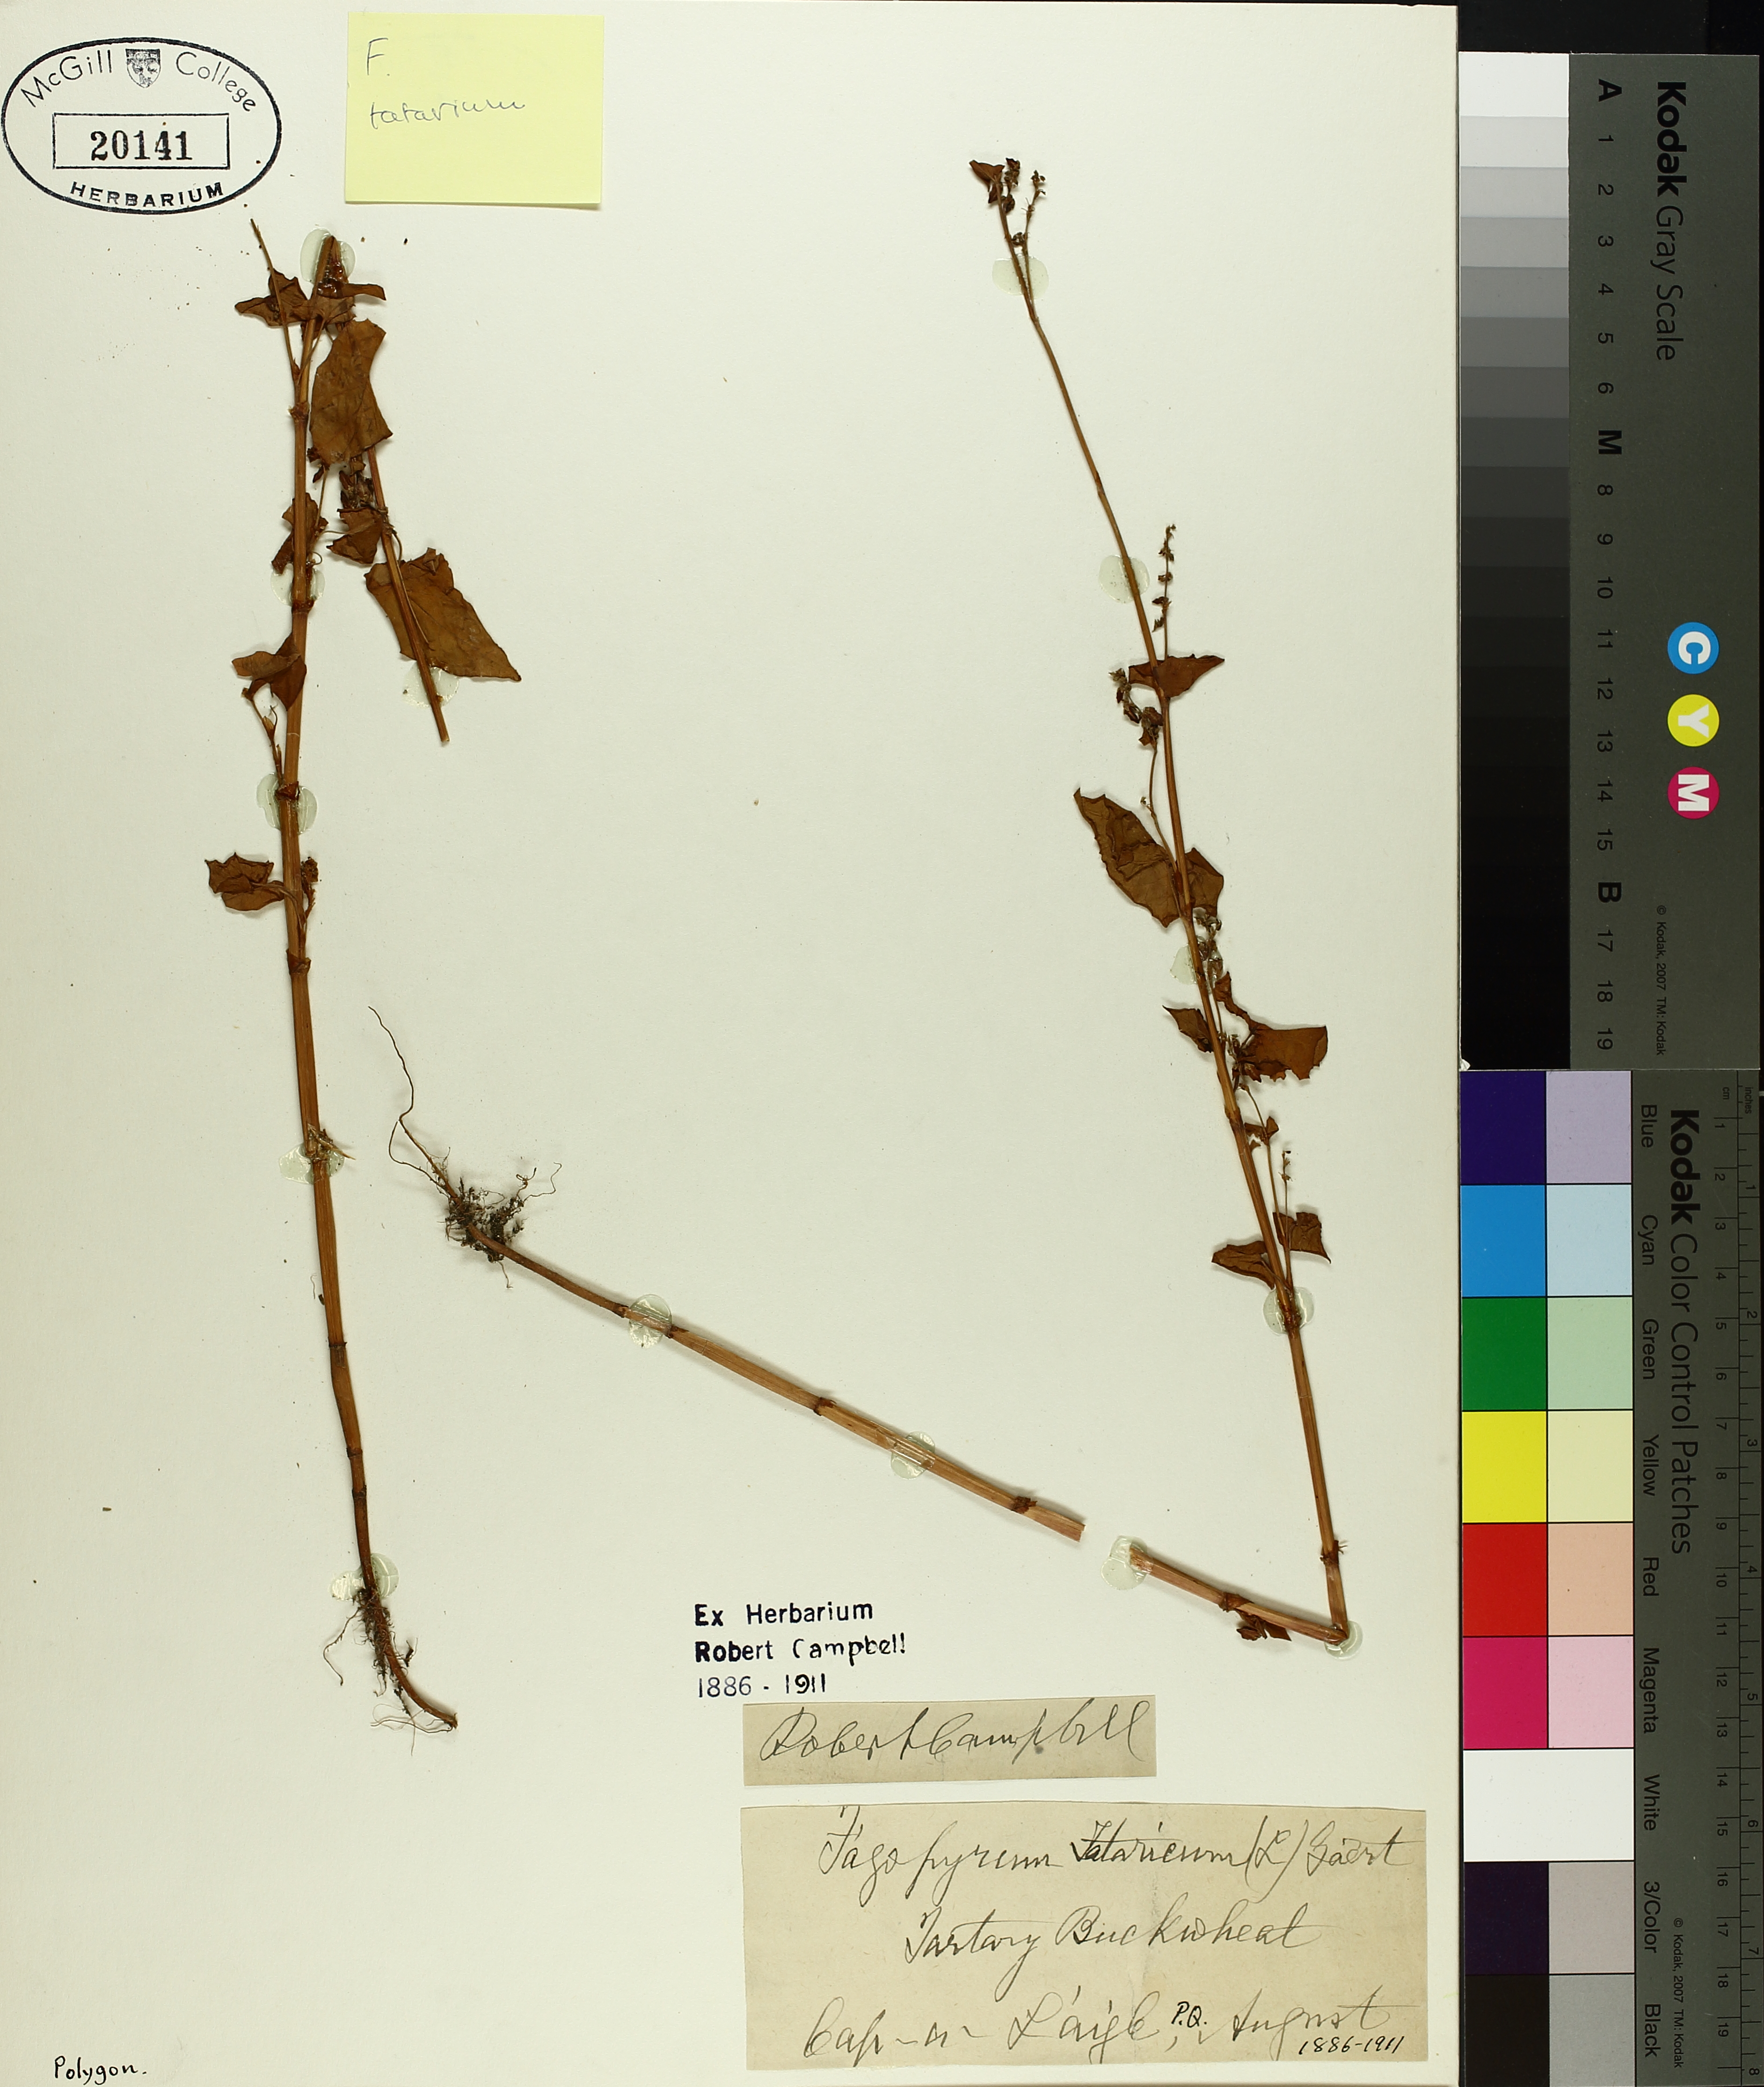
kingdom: Plantae
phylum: Tracheophyta
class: Magnoliopsida
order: Caryophyllales
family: Polygonaceae
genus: Fagopyrum
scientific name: Fagopyrum tataricum
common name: Green buckwheat
